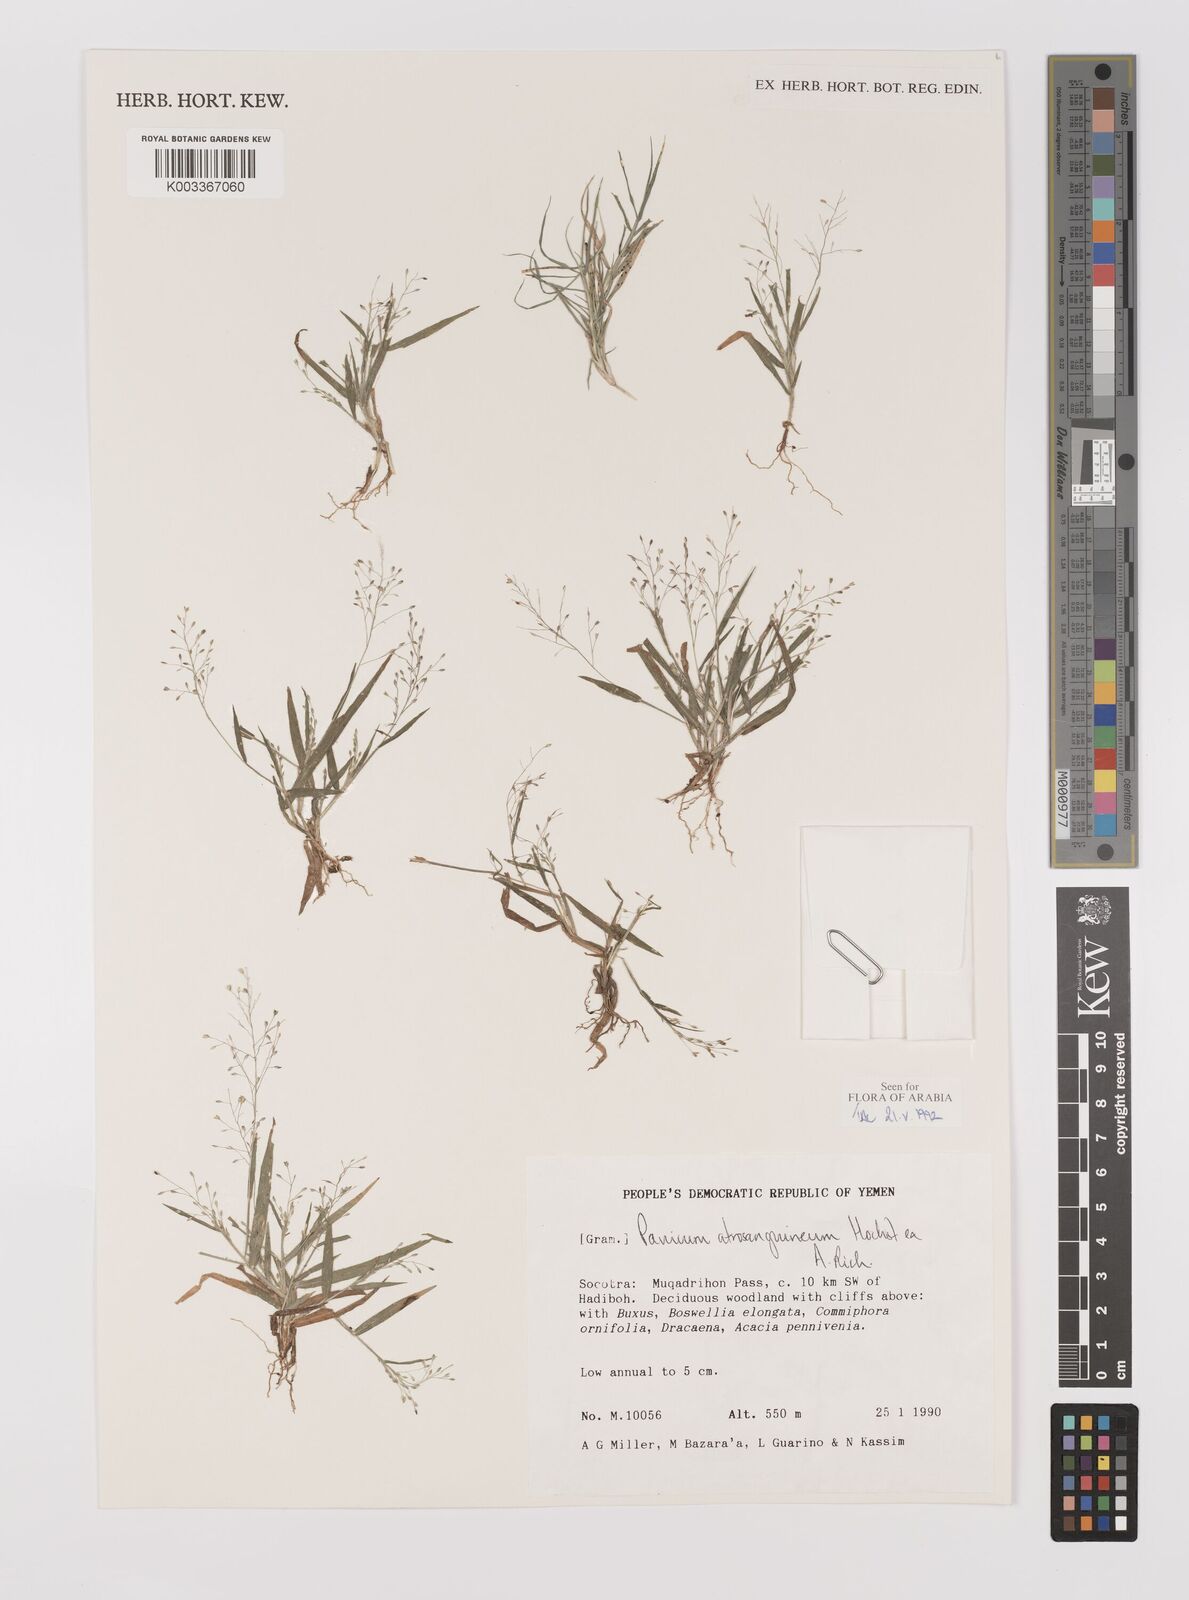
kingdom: Plantae
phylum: Tracheophyta
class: Liliopsida
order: Poales
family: Poaceae
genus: Panicum
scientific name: Panicum atrosanguineum
